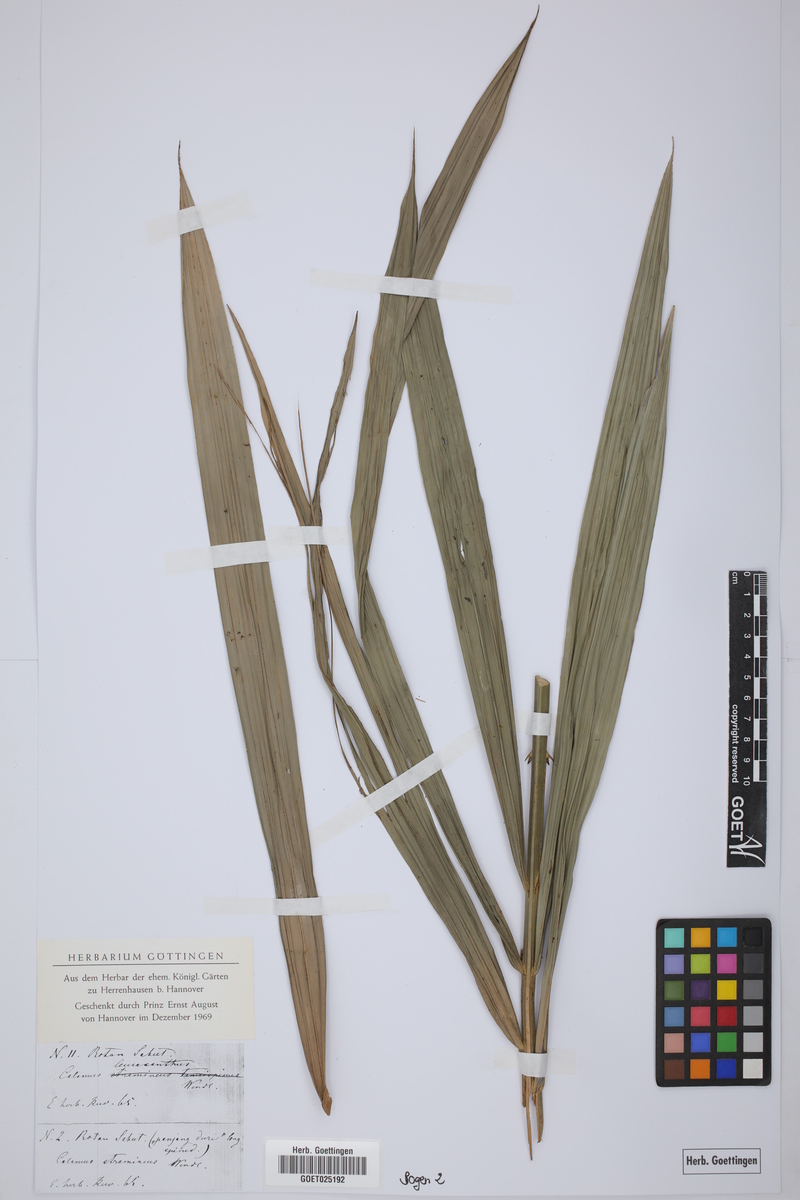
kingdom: Plantae
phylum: Tracheophyta
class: Liliopsida
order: Arecales
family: Arecaceae
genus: Calamus
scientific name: Calamus
